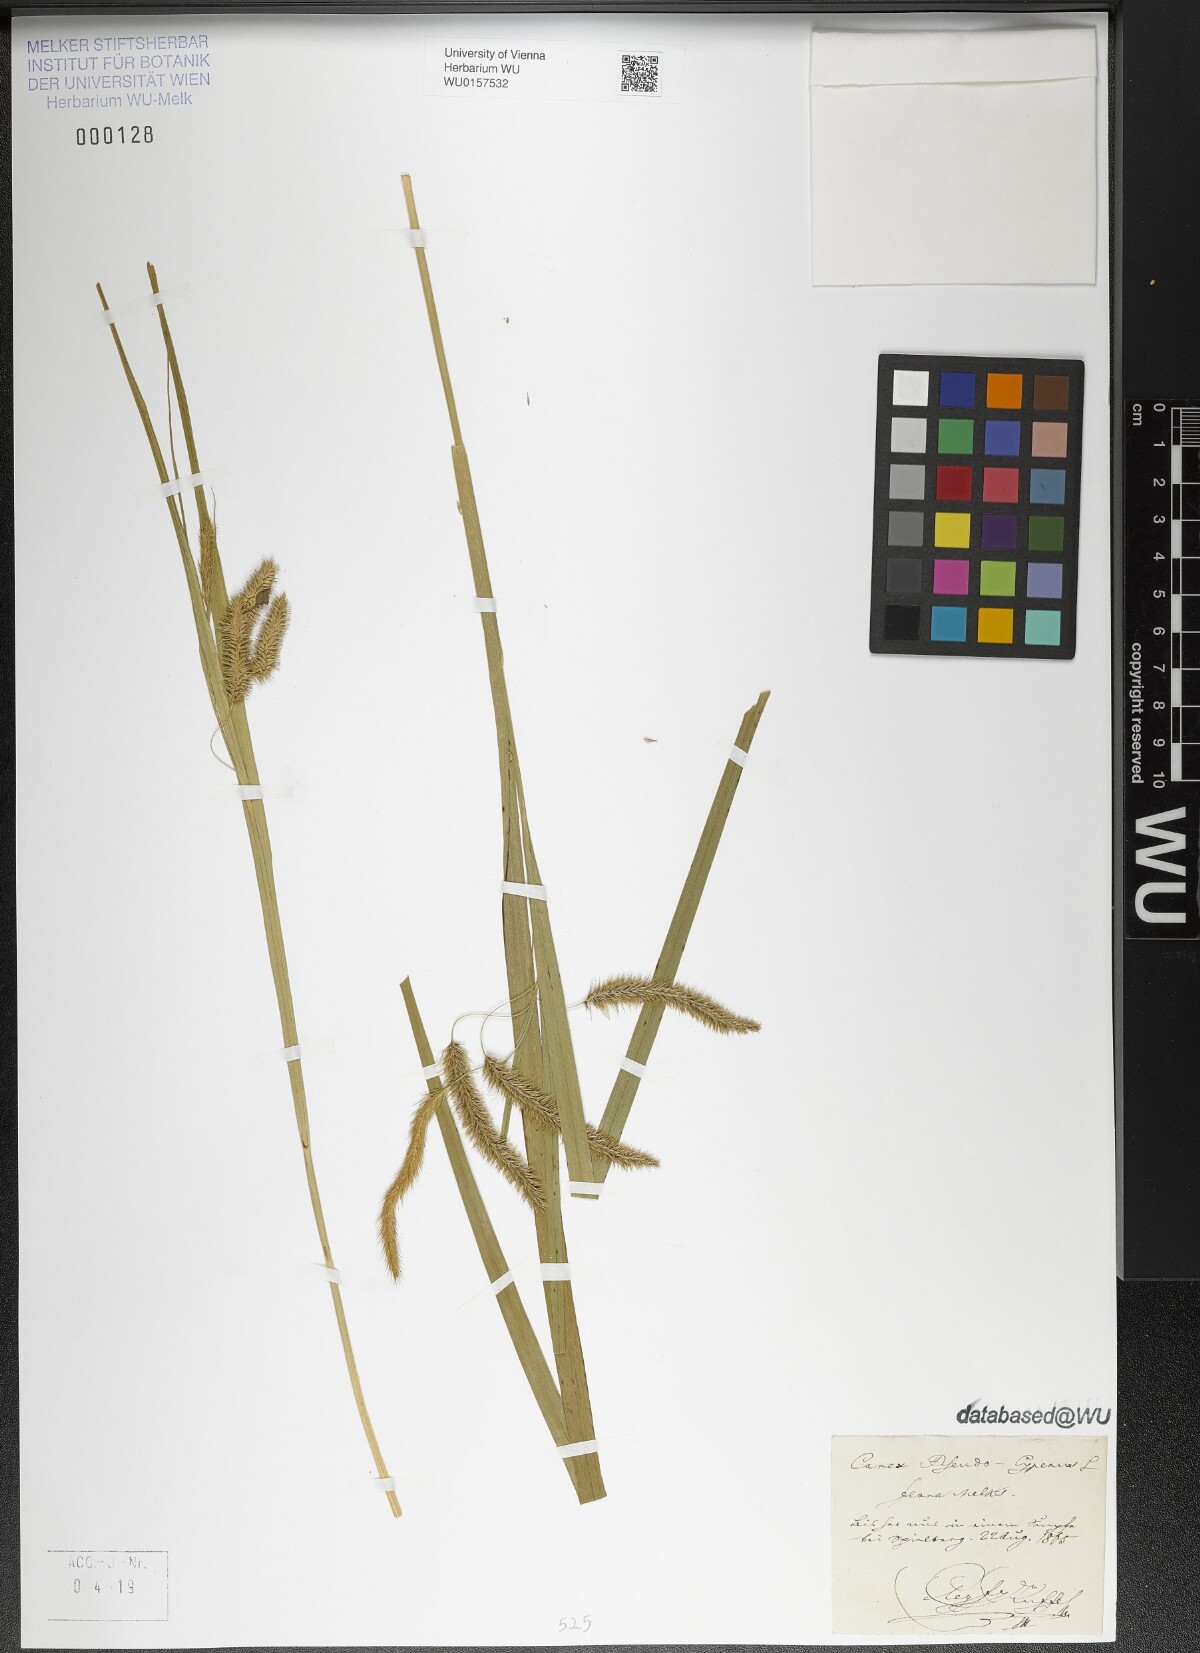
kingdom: Plantae
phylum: Tracheophyta
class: Liliopsida
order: Poales
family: Cyperaceae
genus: Carex
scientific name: Carex pseudocyperus
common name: Cyperus sedge
